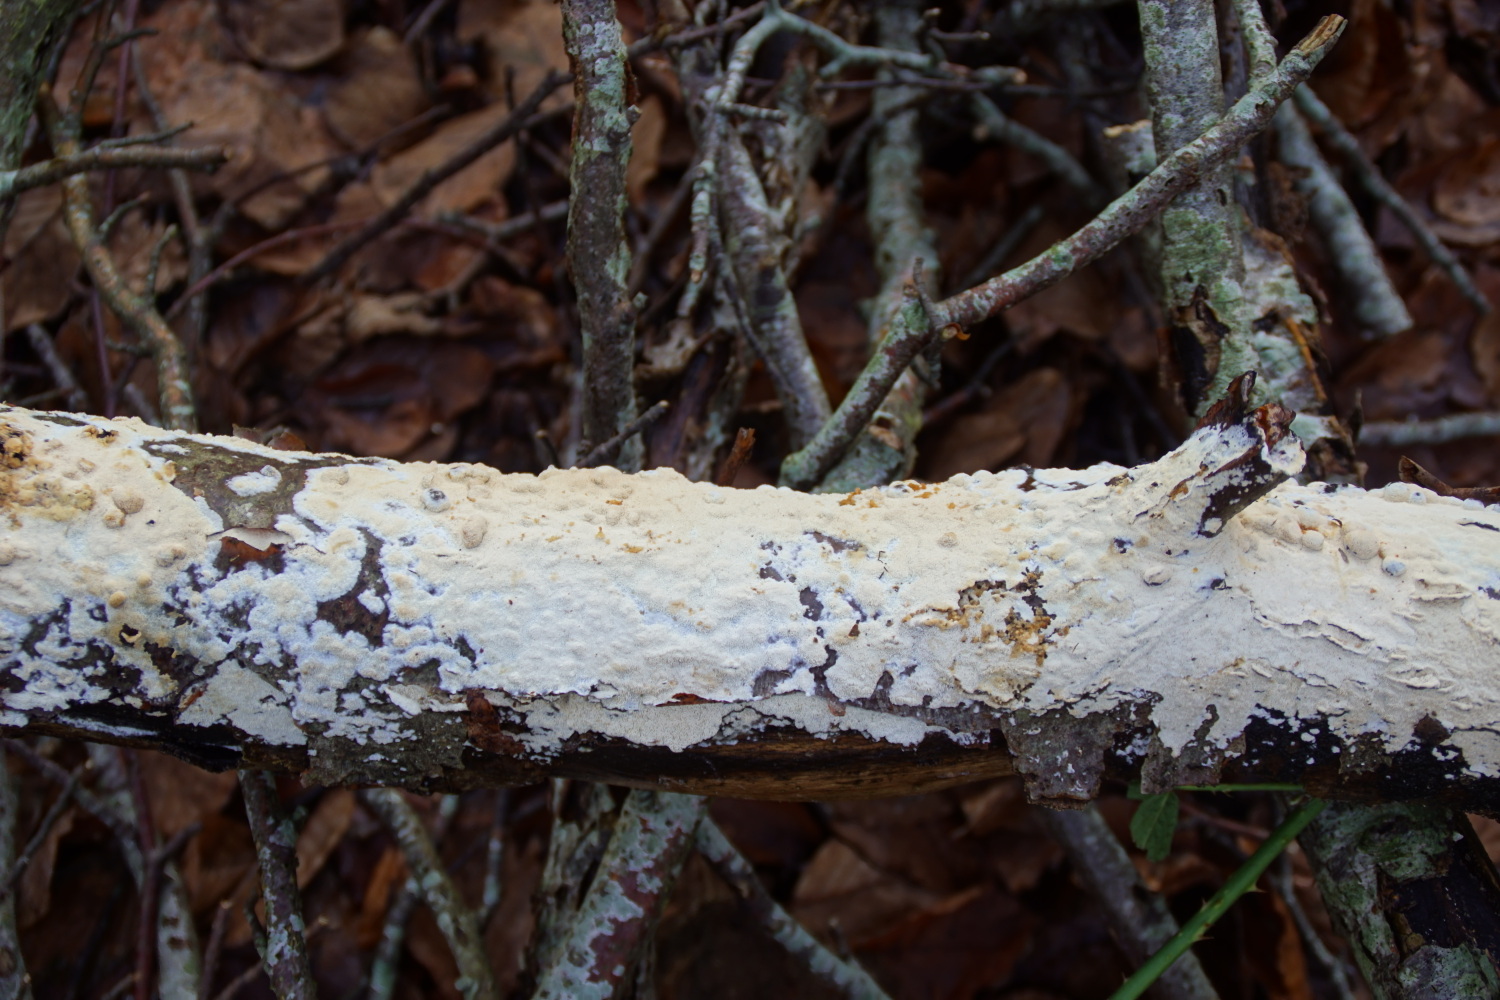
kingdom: Fungi
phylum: Basidiomycota
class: Agaricomycetes
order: Hymenochaetales
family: Schizoporaceae
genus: Xylodon
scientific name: Xylodon subtropicus
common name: labyrint-tandsvamp
